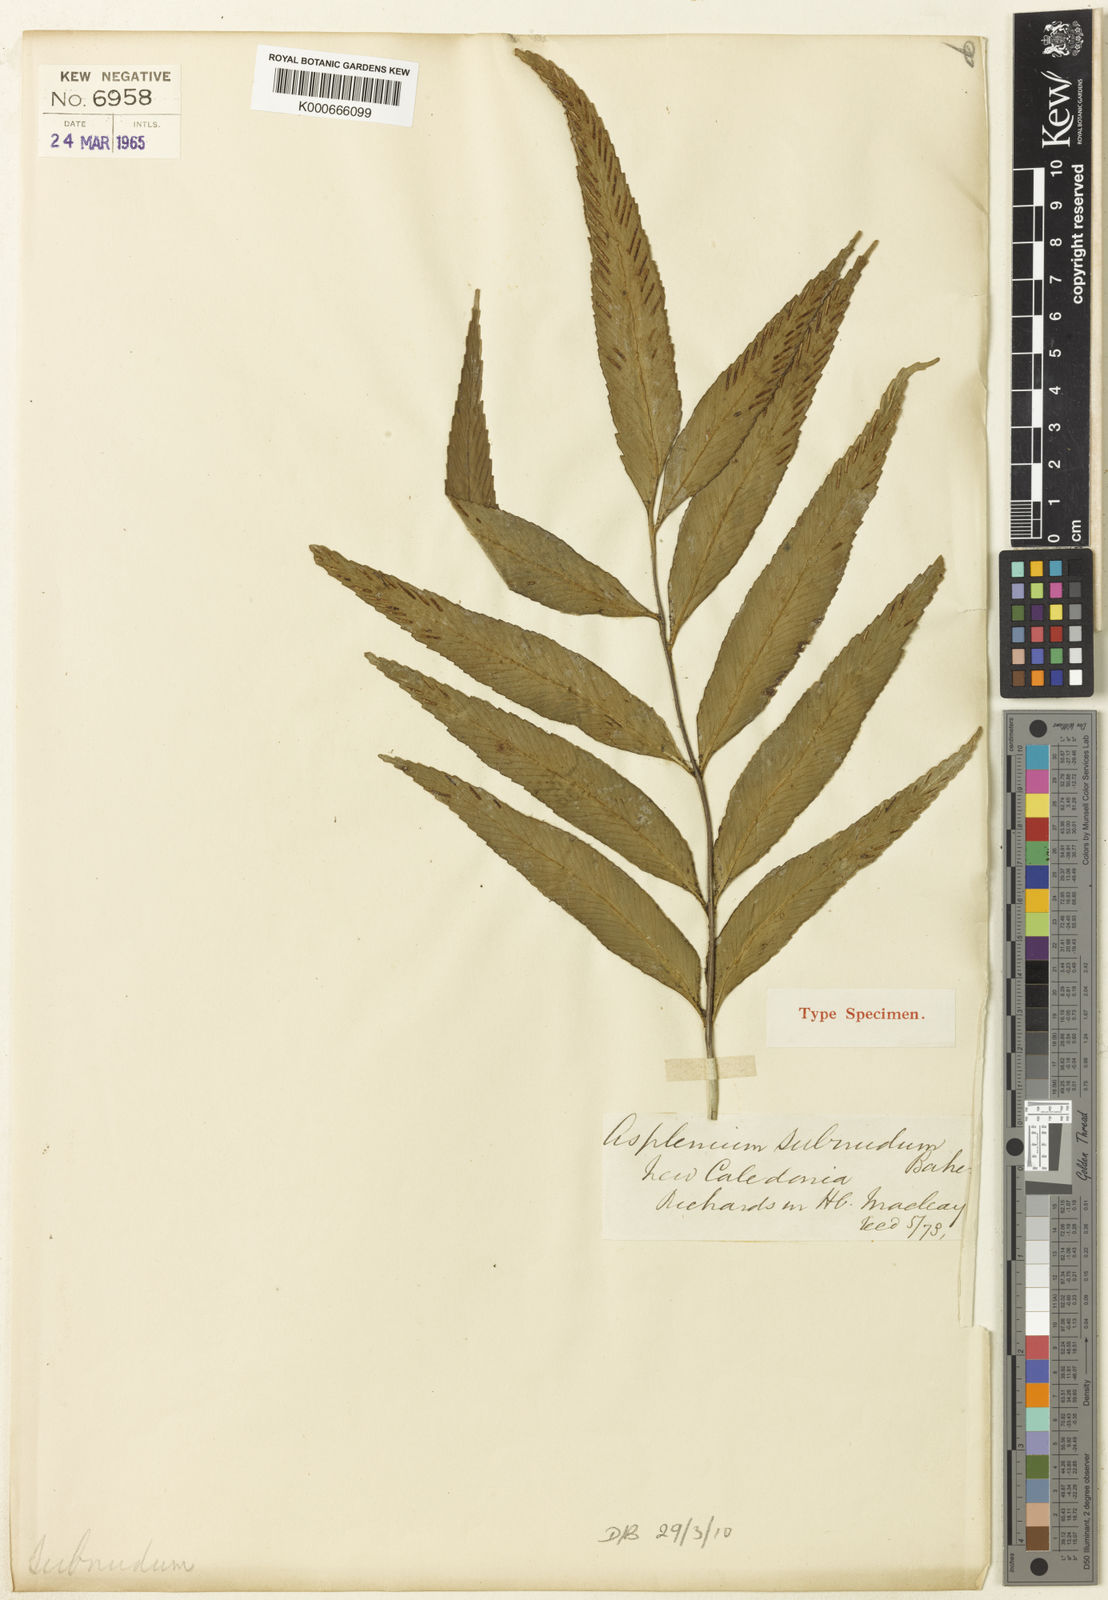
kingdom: Plantae
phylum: Tracheophyta
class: Polypodiopsida
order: Polypodiales
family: Aspleniaceae
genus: Asplenium
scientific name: Asplenium oligolepidum
